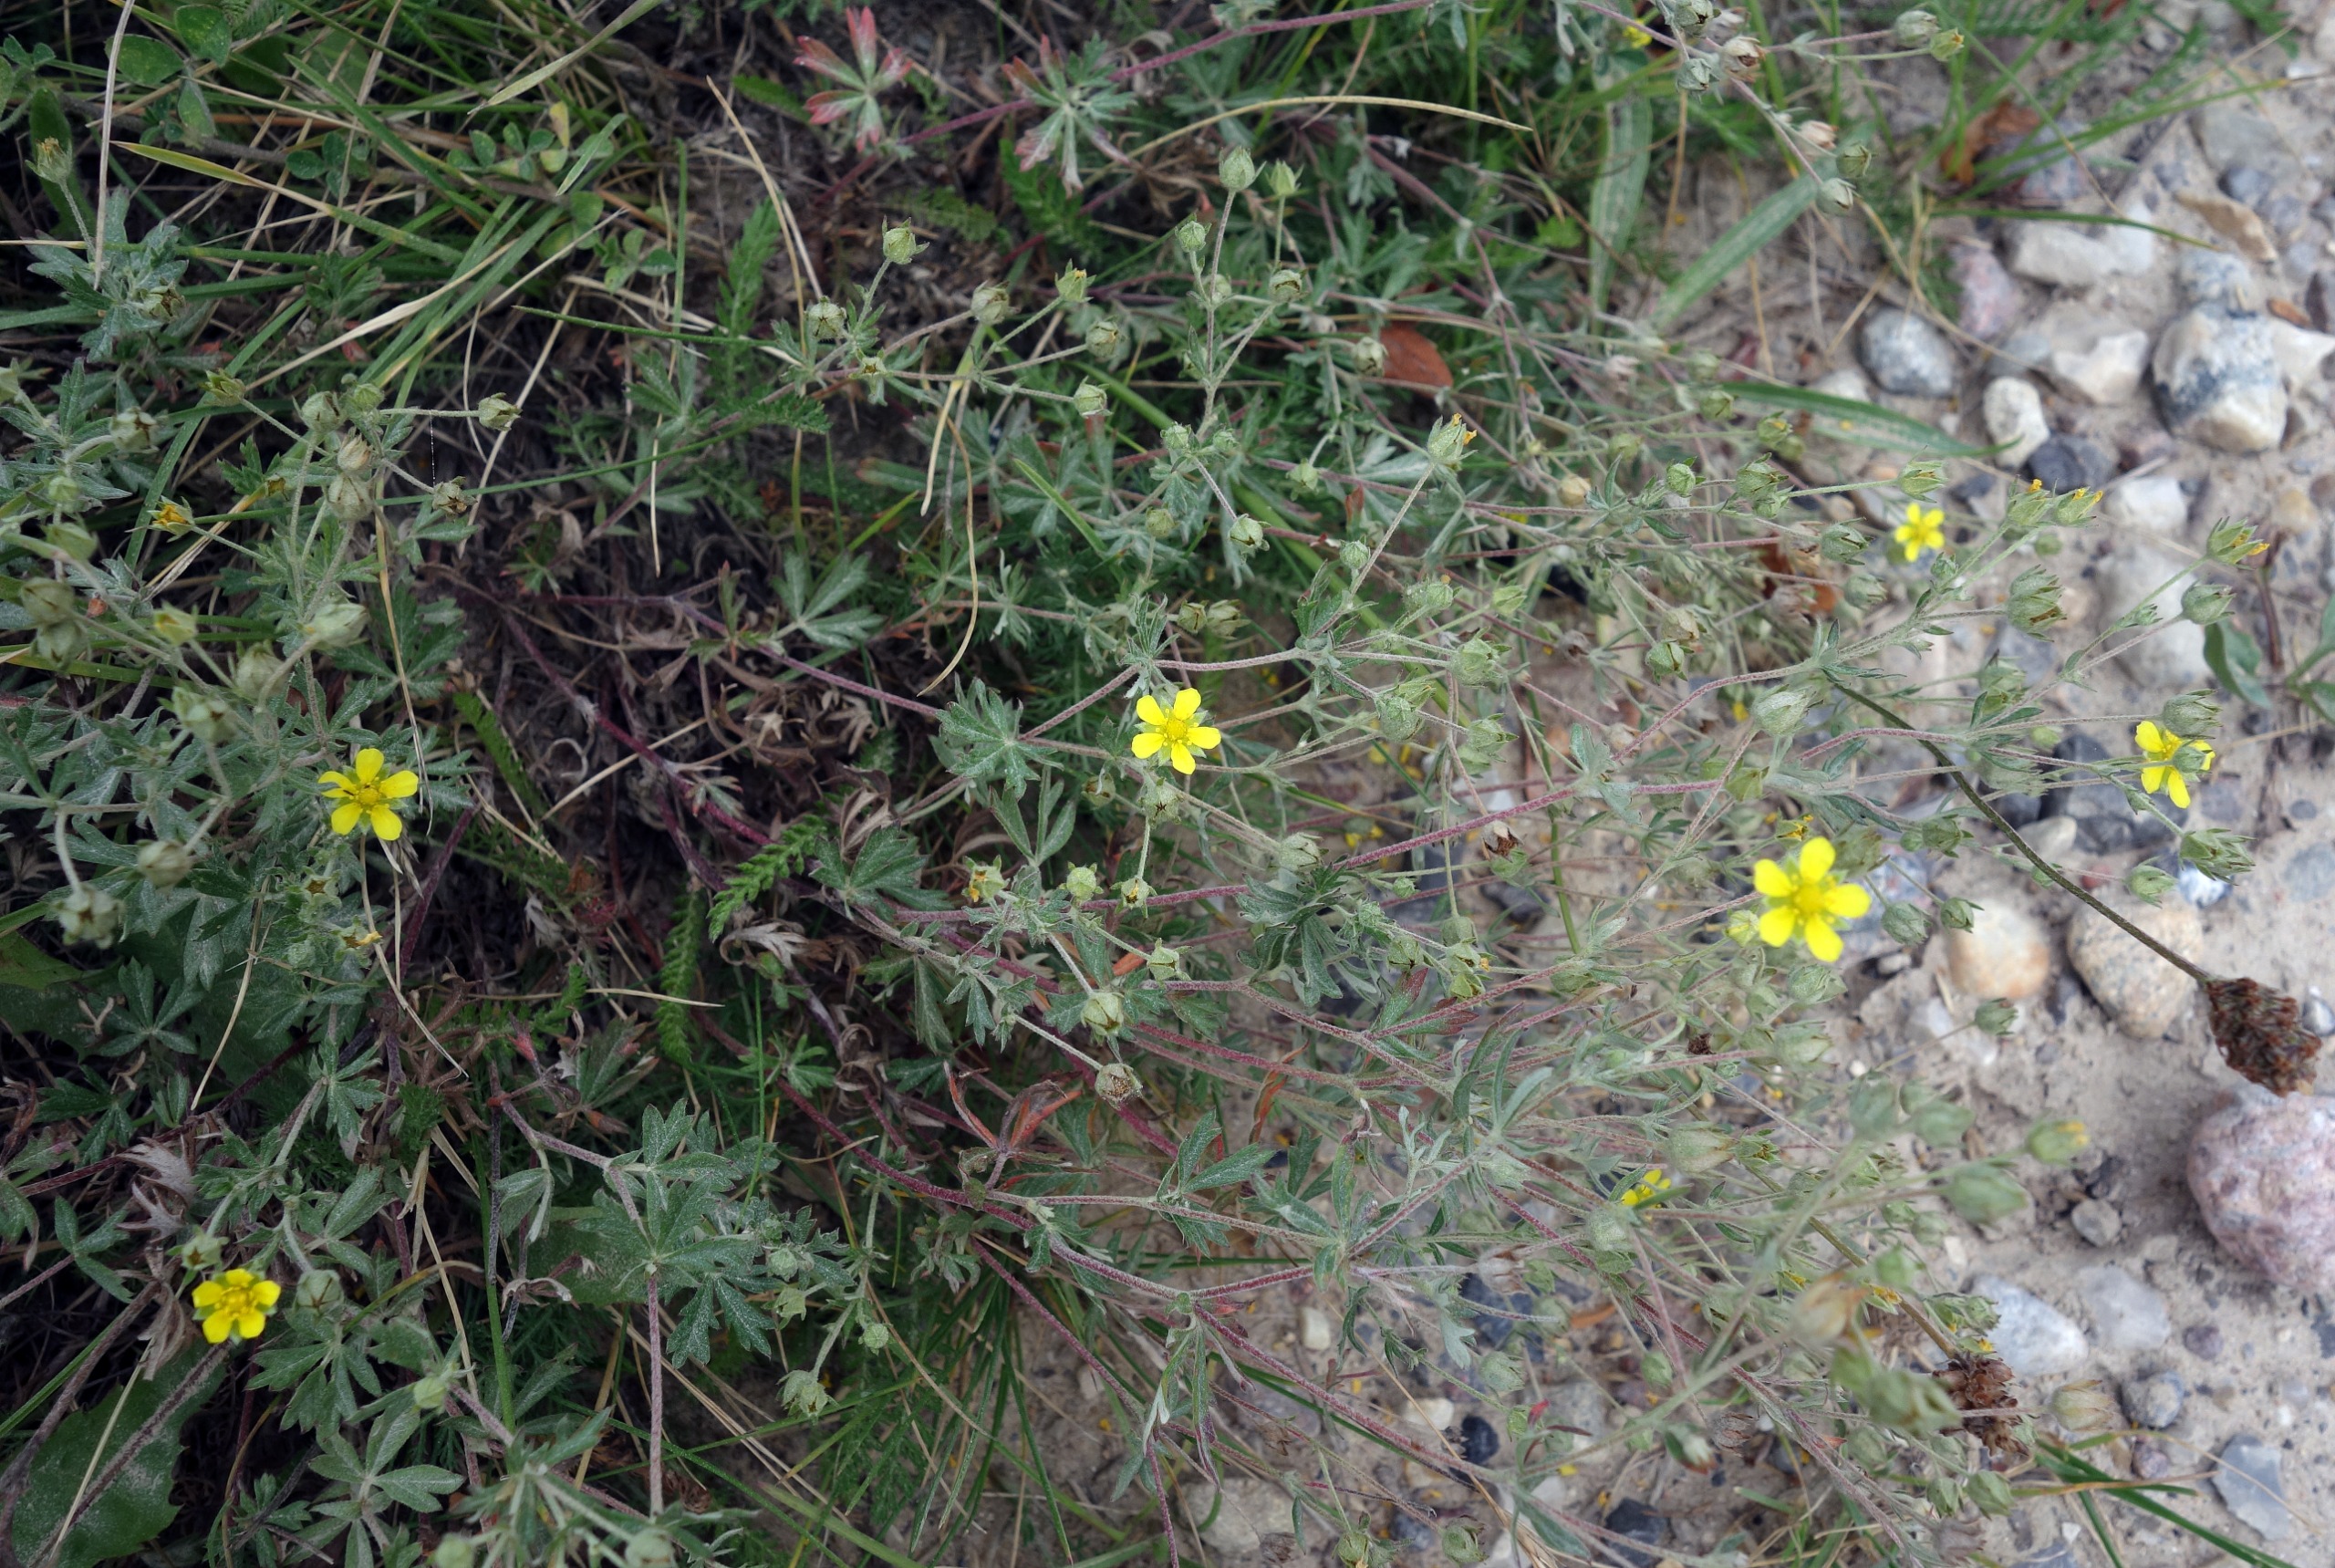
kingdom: Plantae
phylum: Tracheophyta
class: Magnoliopsida
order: Rosales
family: Rosaceae
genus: Potentilla
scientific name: Potentilla argentea
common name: Sølv-potentil
